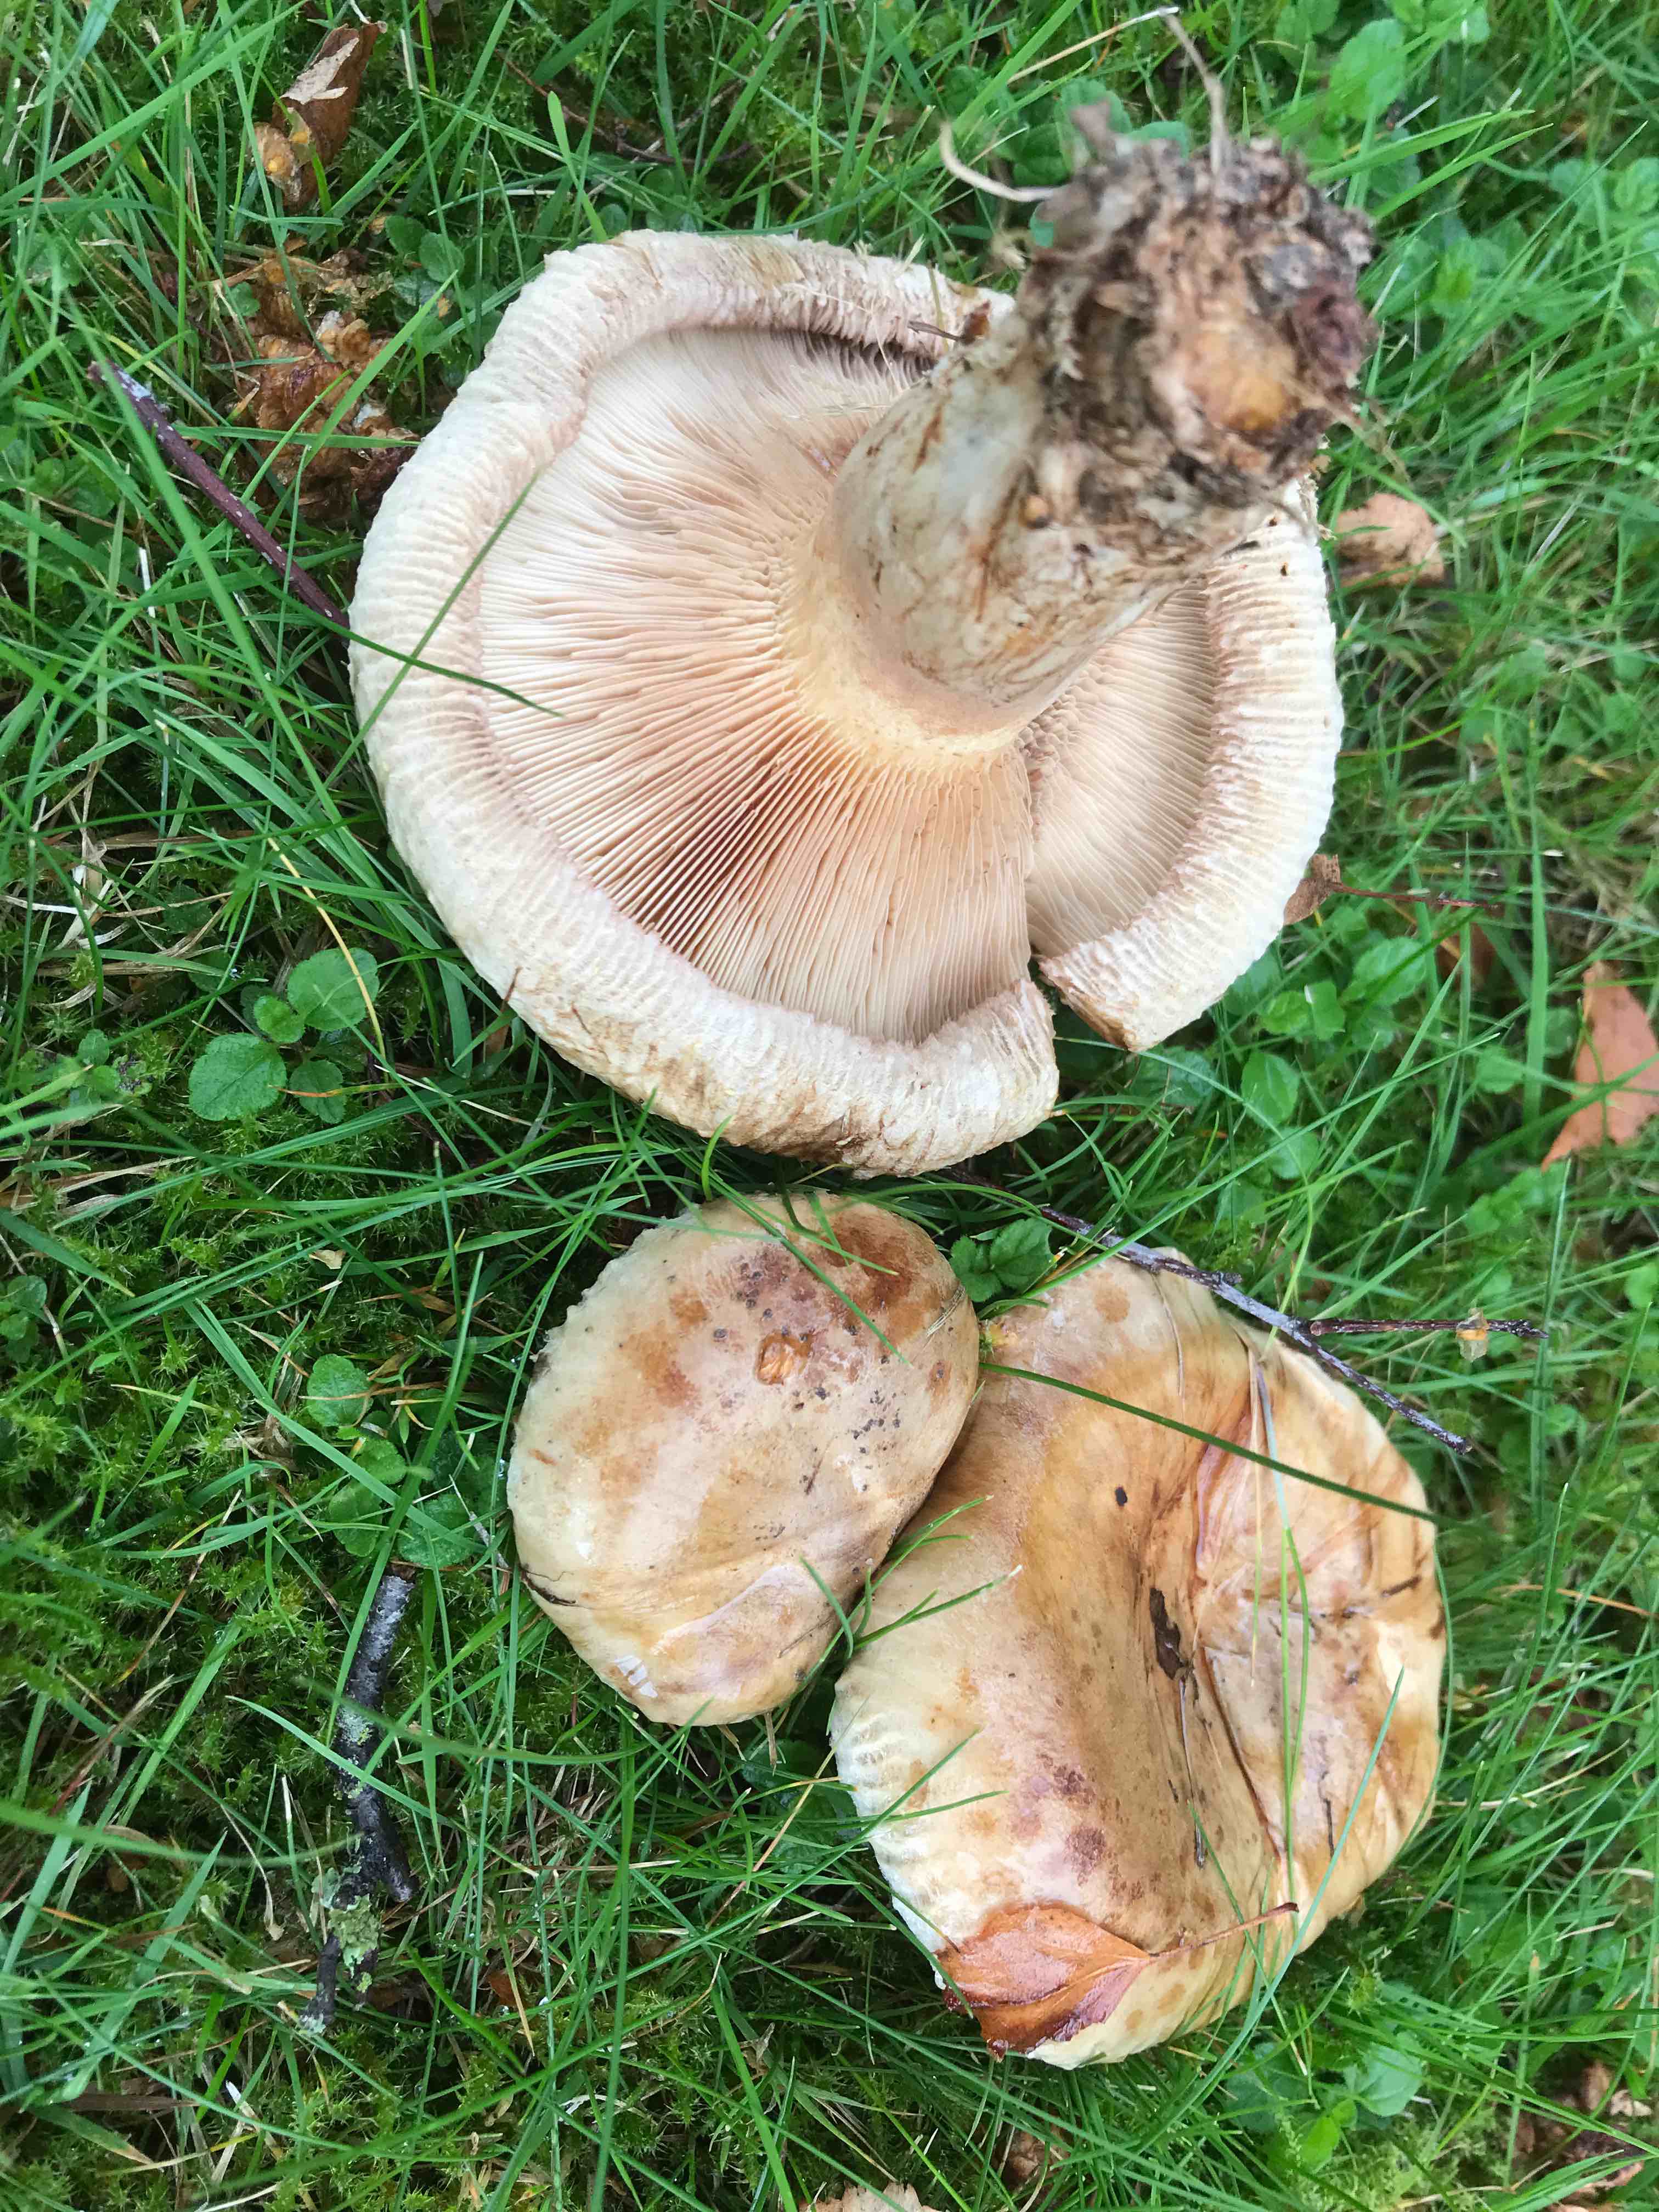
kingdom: Fungi
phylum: Basidiomycota
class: Agaricomycetes
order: Boletales
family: Paxillaceae
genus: Paxillus
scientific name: Paxillus obscurisporus
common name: mahognisporet netbladhat
